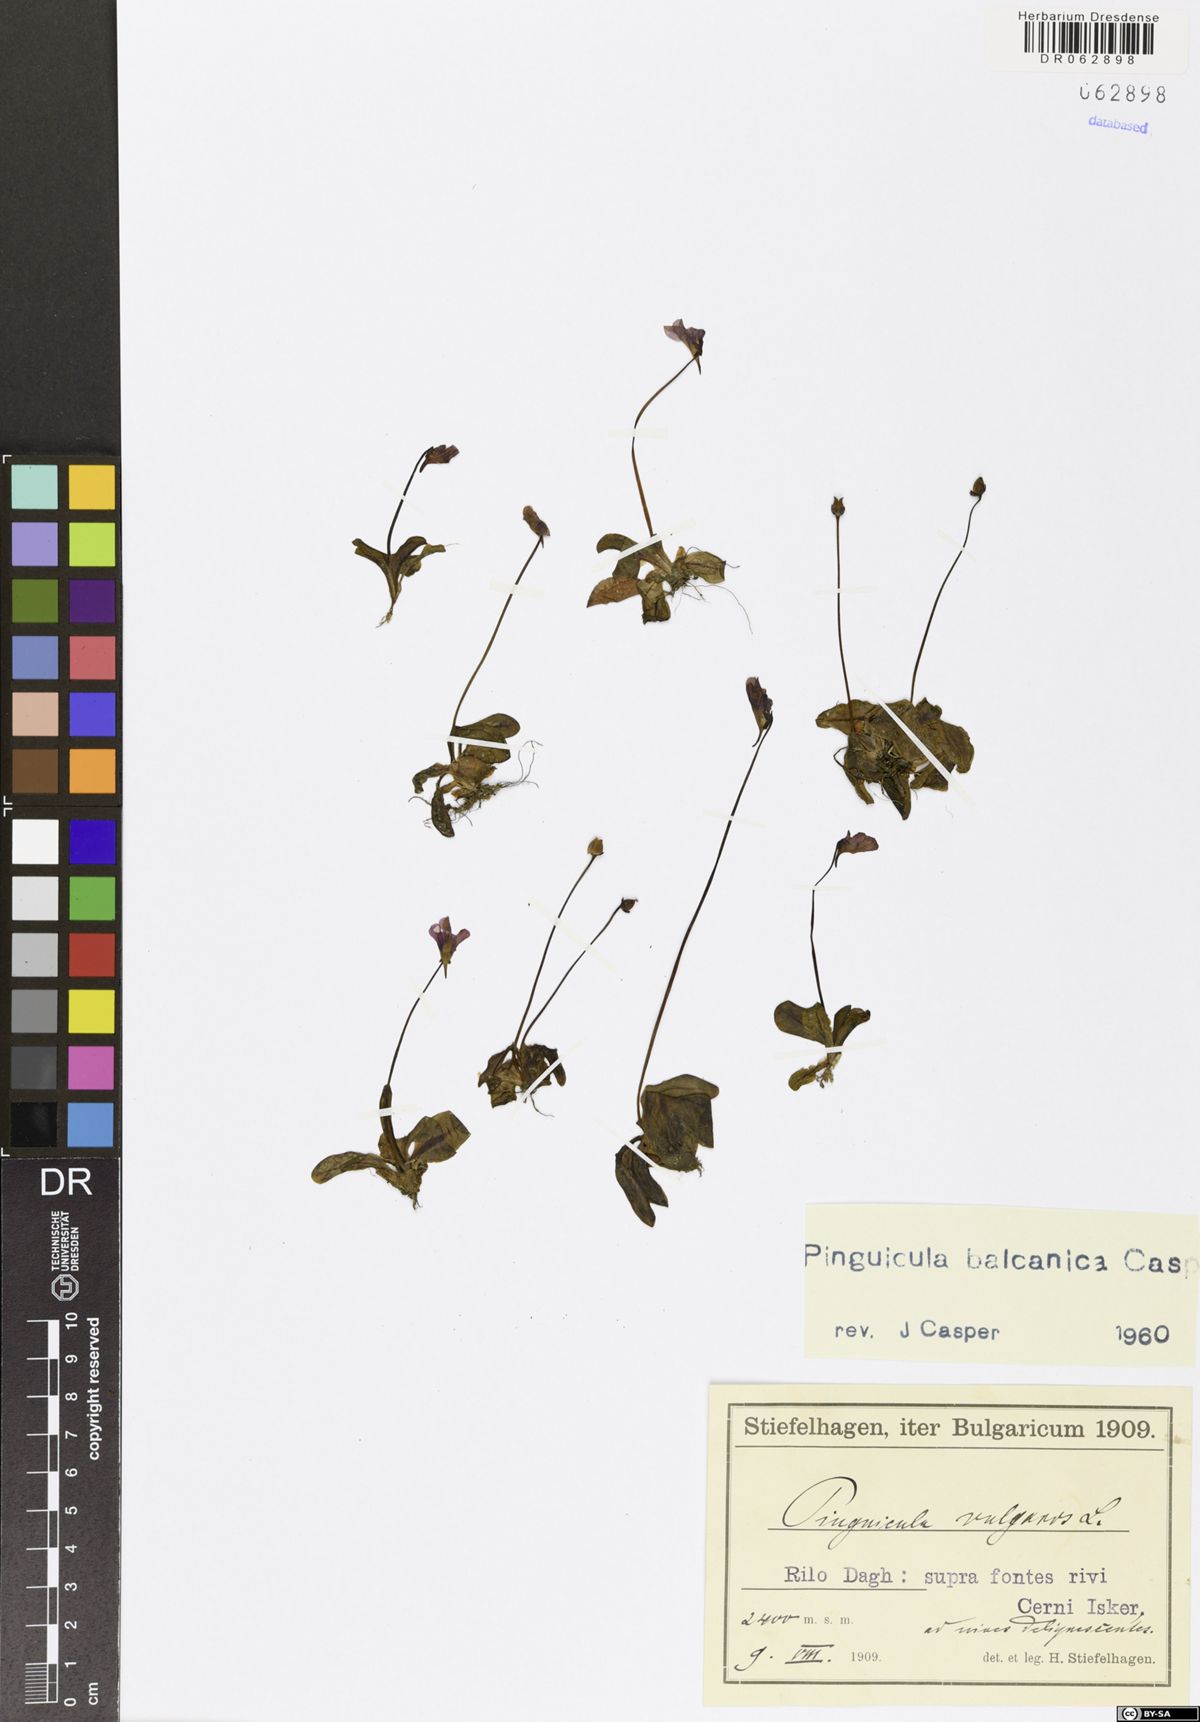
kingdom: Plantae
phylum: Tracheophyta
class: Magnoliopsida
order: Lamiales
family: Lentibulariaceae
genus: Pinguicula
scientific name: Pinguicula balcanica
